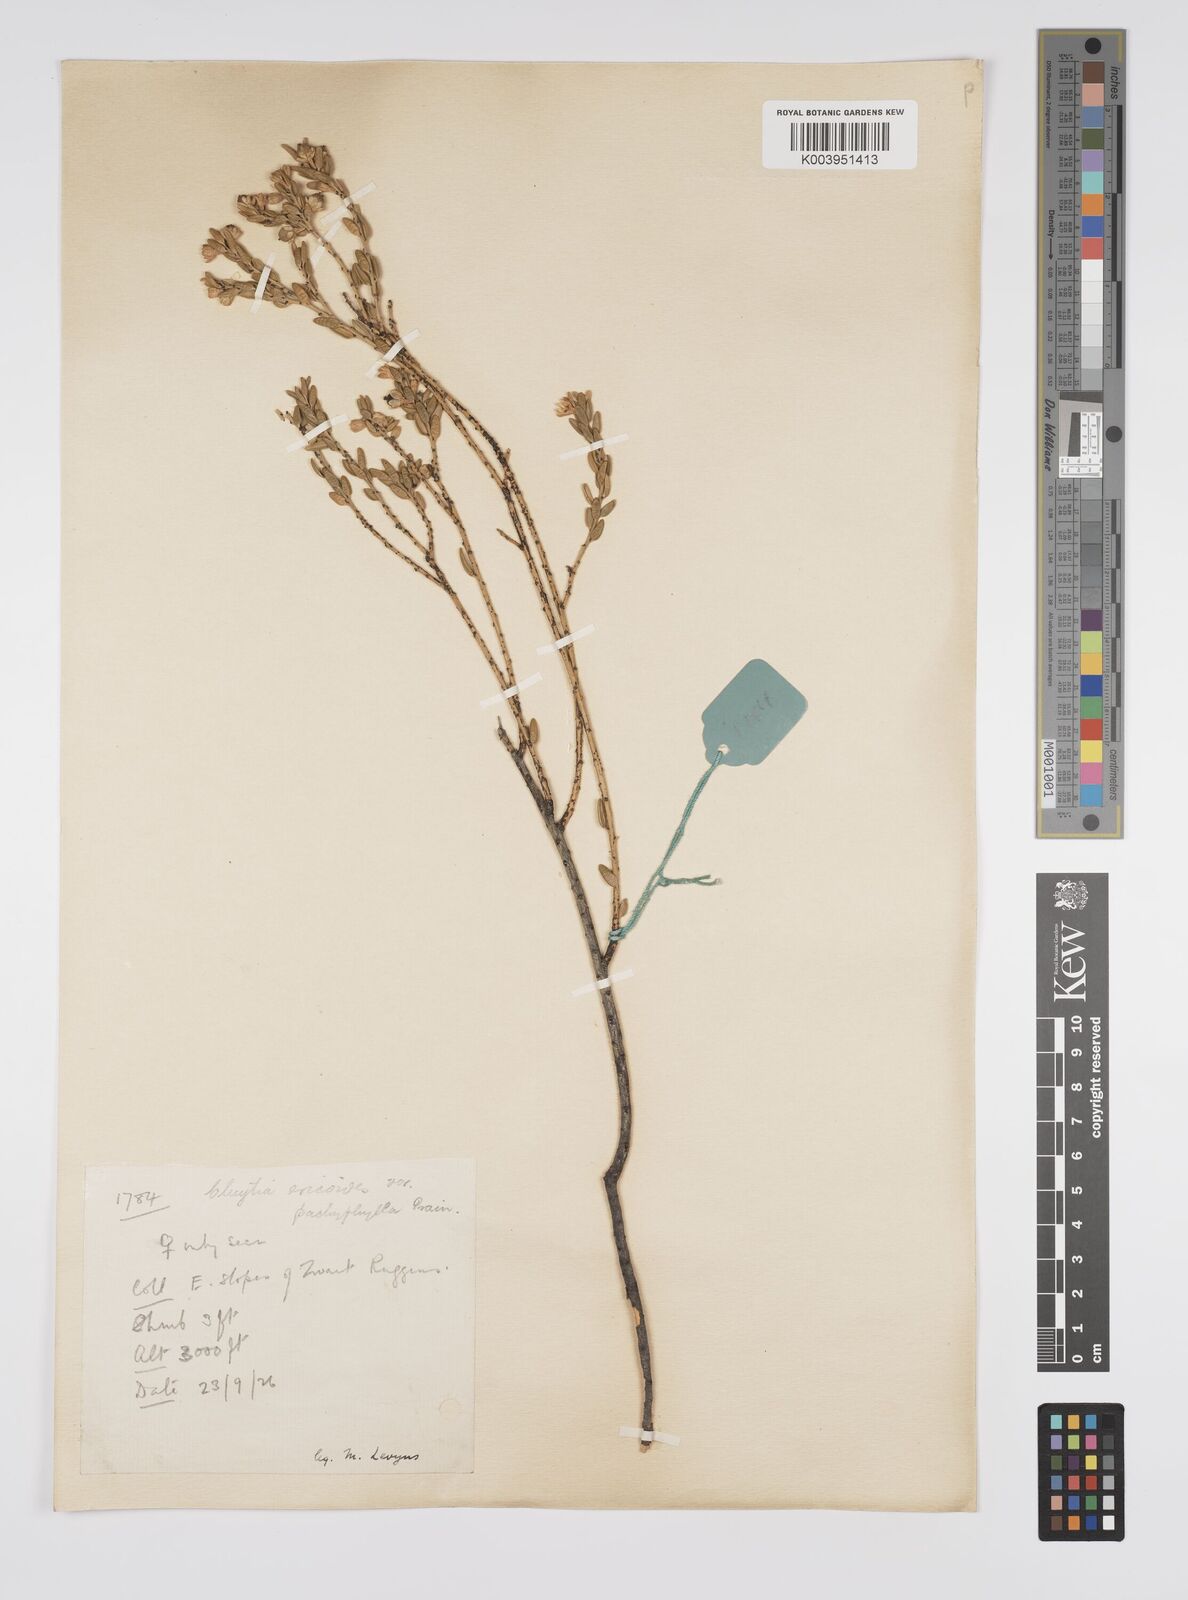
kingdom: Plantae
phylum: Tracheophyta
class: Magnoliopsida
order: Malpighiales
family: Peraceae
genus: Clutia
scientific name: Clutia
